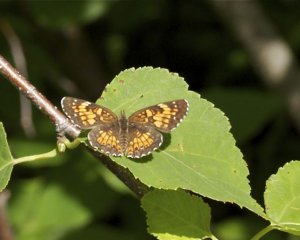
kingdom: Animalia
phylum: Arthropoda
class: Insecta
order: Lepidoptera
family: Nymphalidae
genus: Chlosyne
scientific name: Chlosyne harrisii
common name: Harris's Checkerspot
